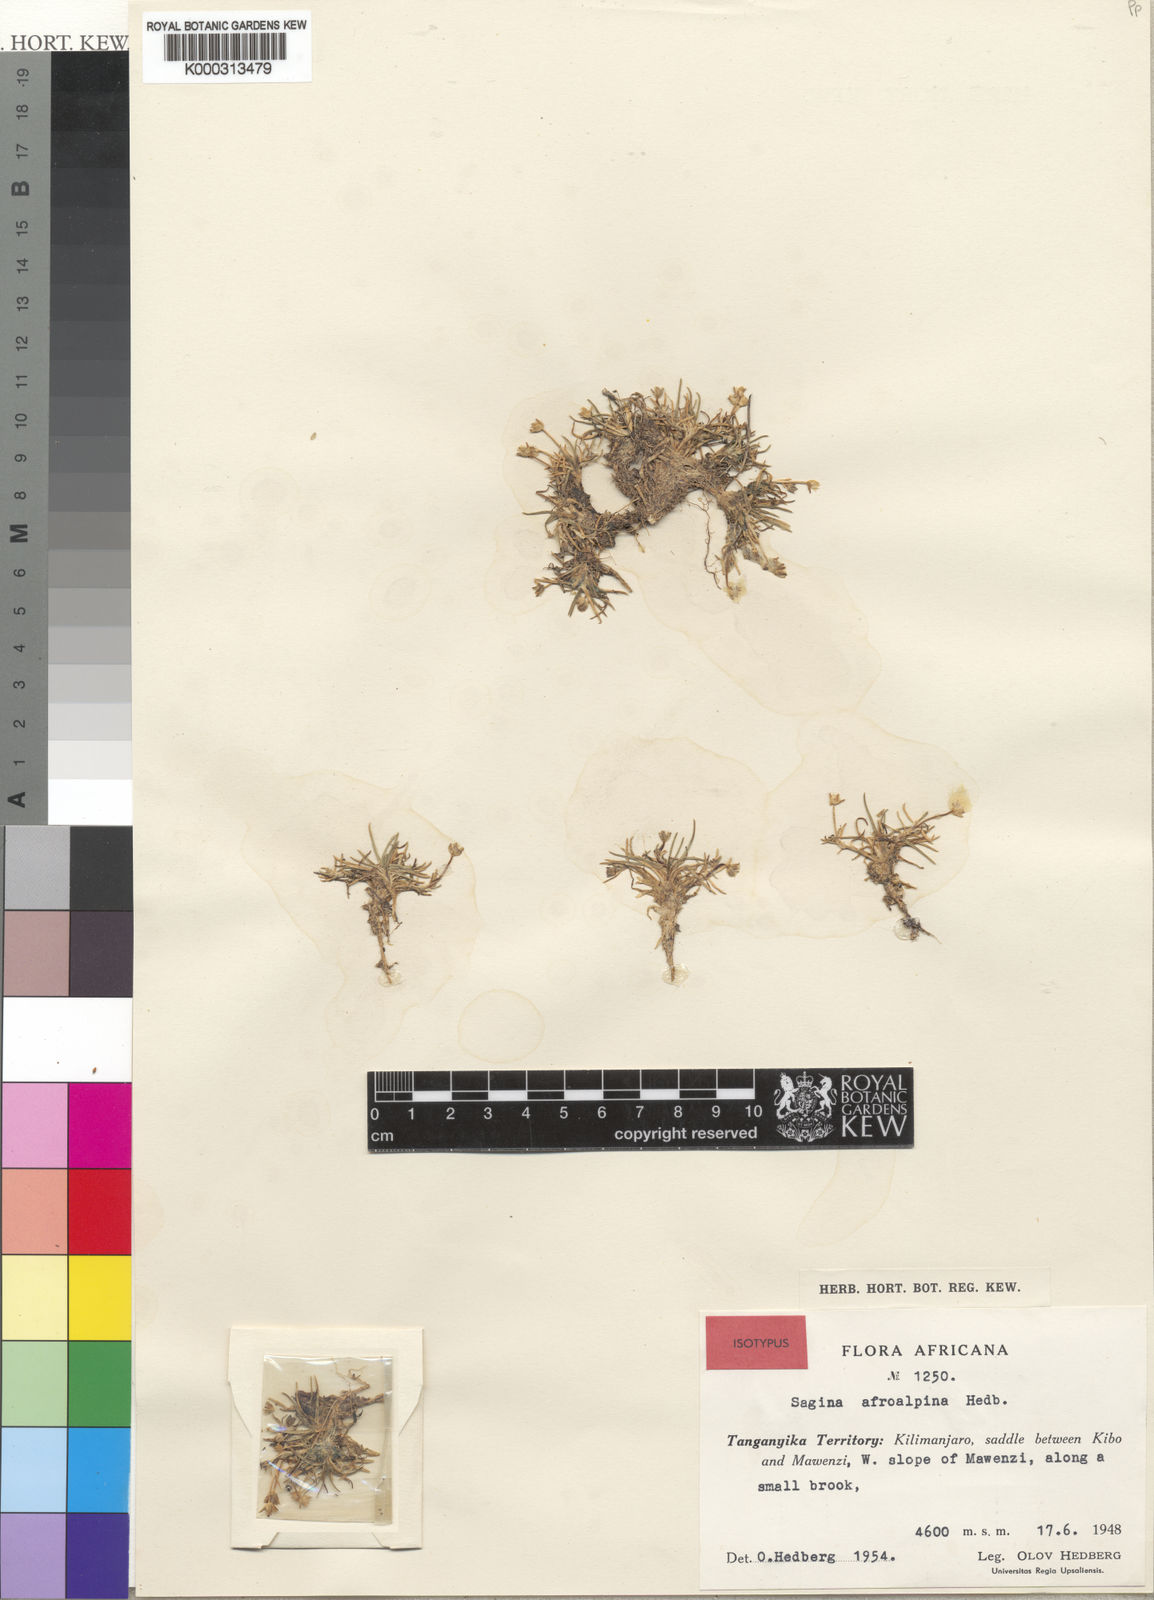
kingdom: Plantae
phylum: Tracheophyta
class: Magnoliopsida
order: Caryophyllales
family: Caryophyllaceae
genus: Sagina
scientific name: Sagina afroalpina
